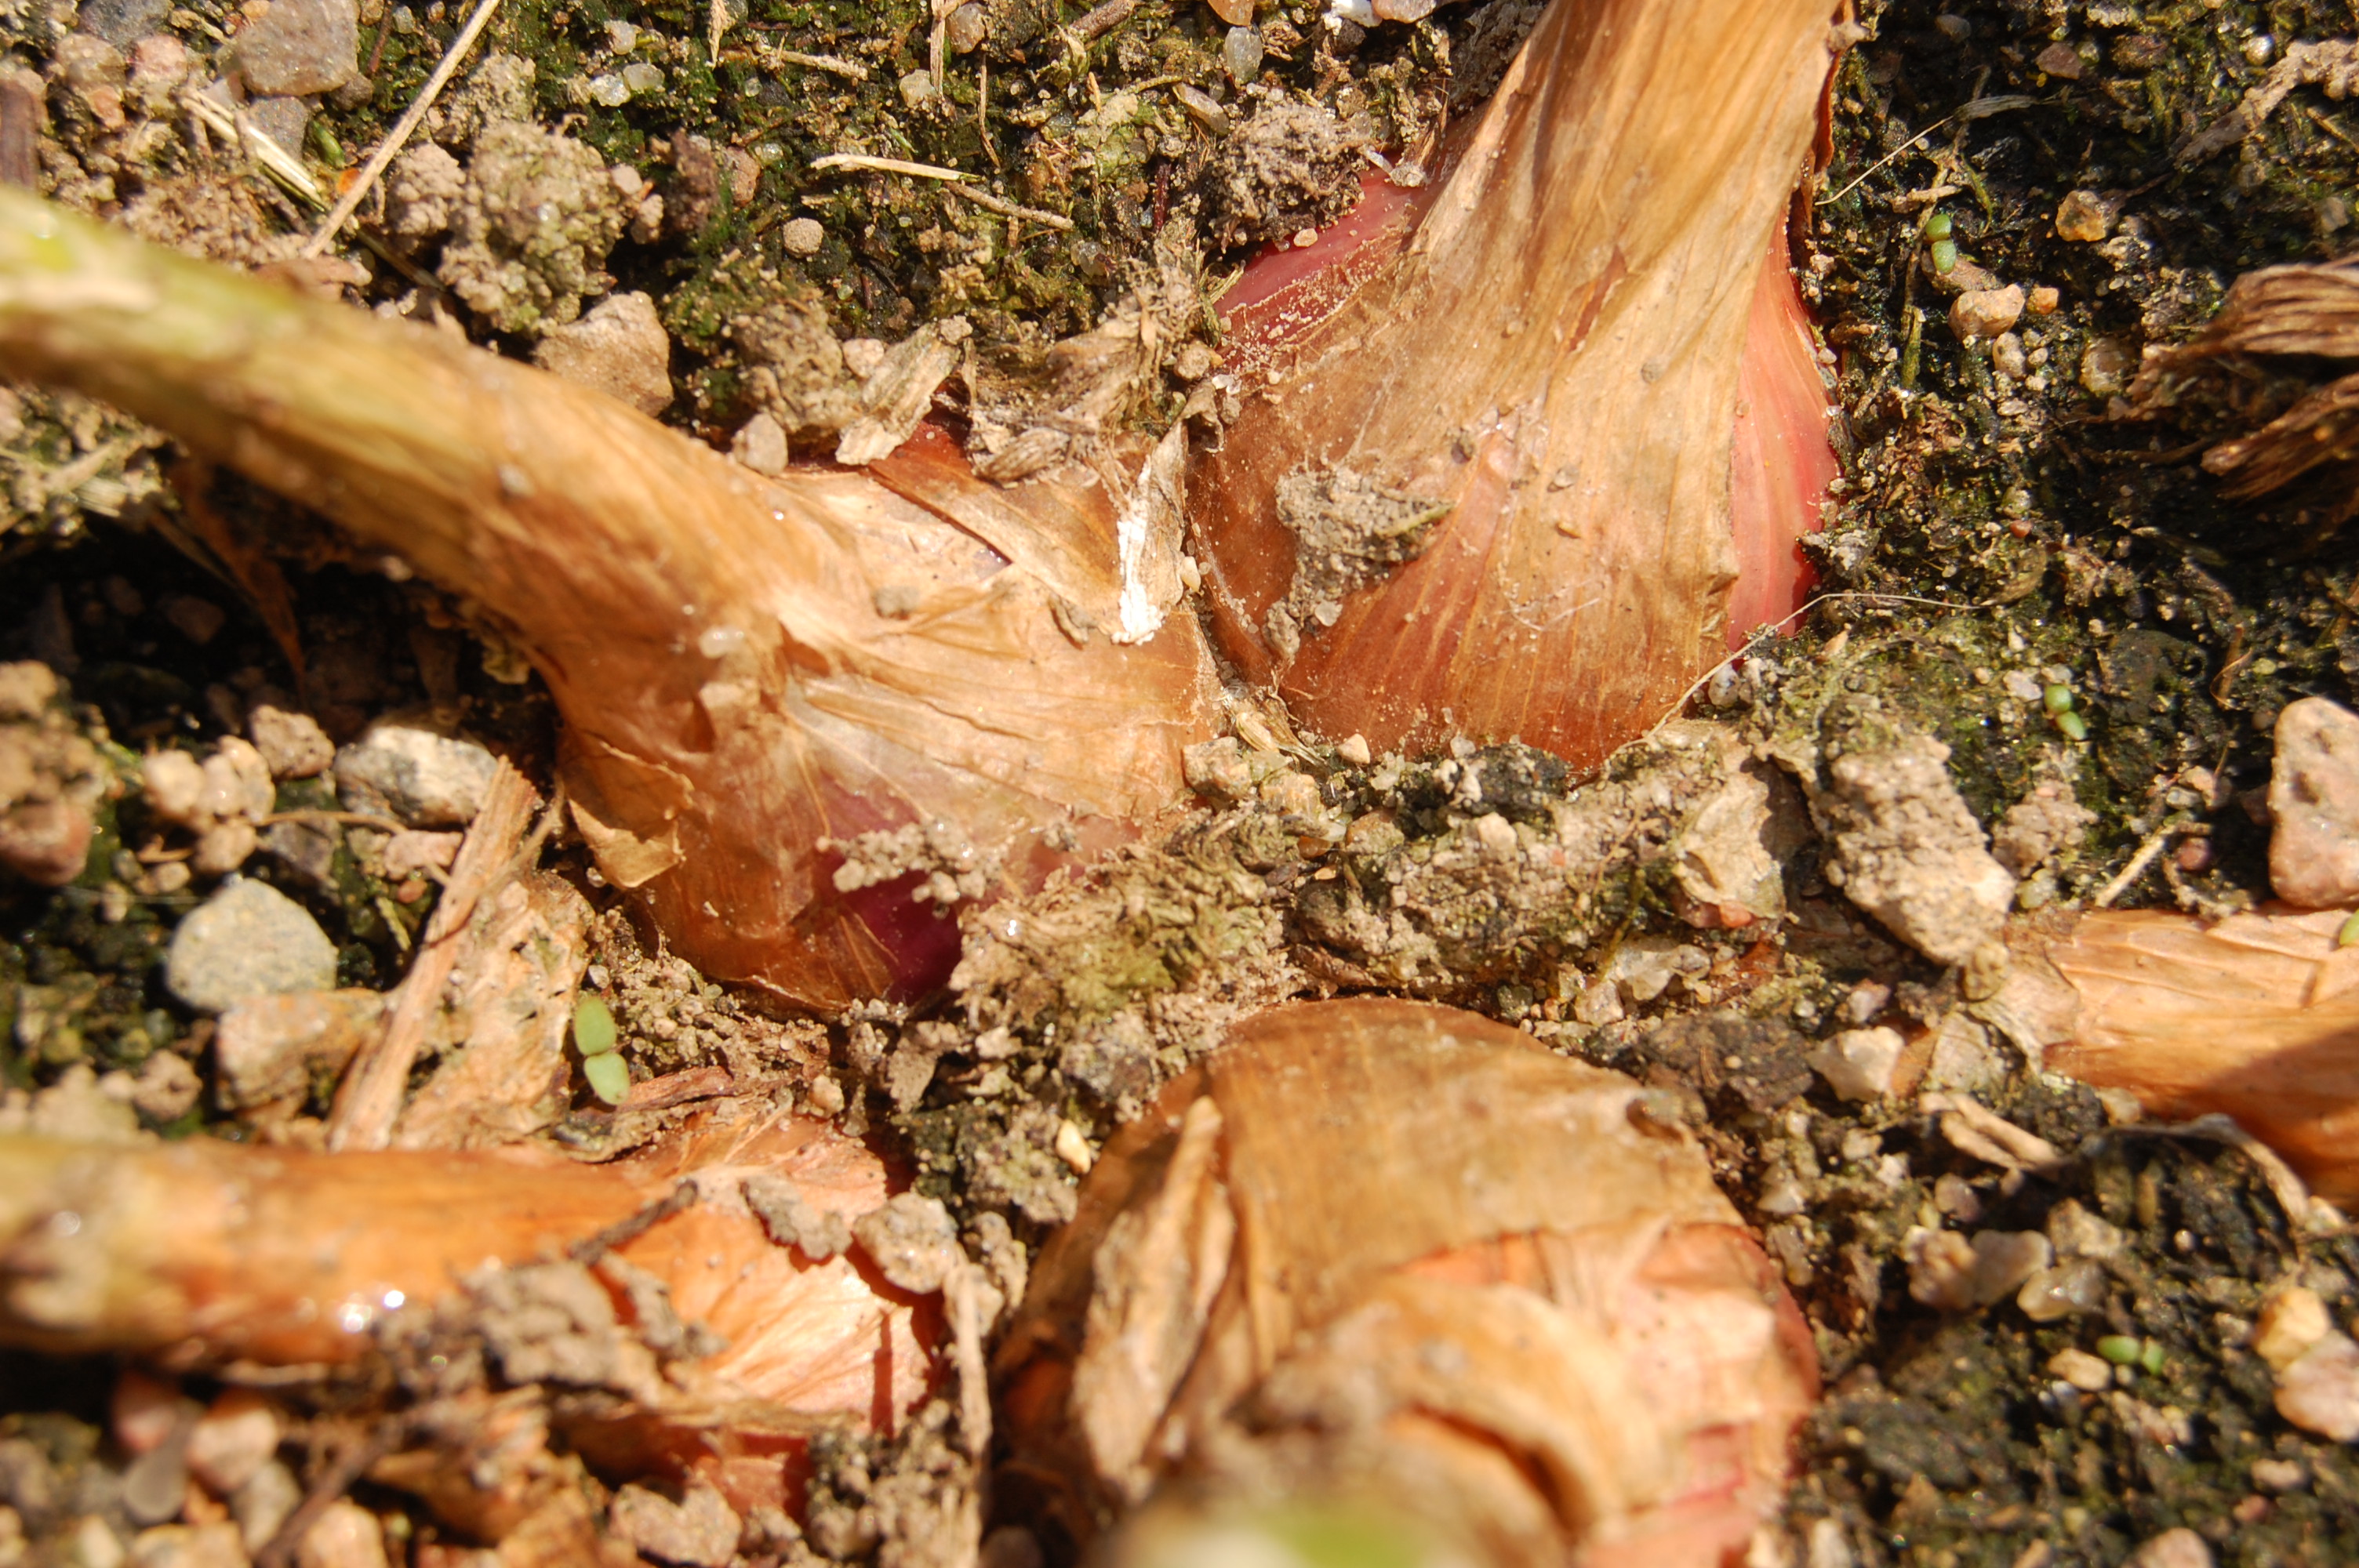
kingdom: Plantae
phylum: Tracheophyta
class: Liliopsida
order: Asparagales
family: Amaryllidaceae
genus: Allium
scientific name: Allium cepa
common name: Onion
